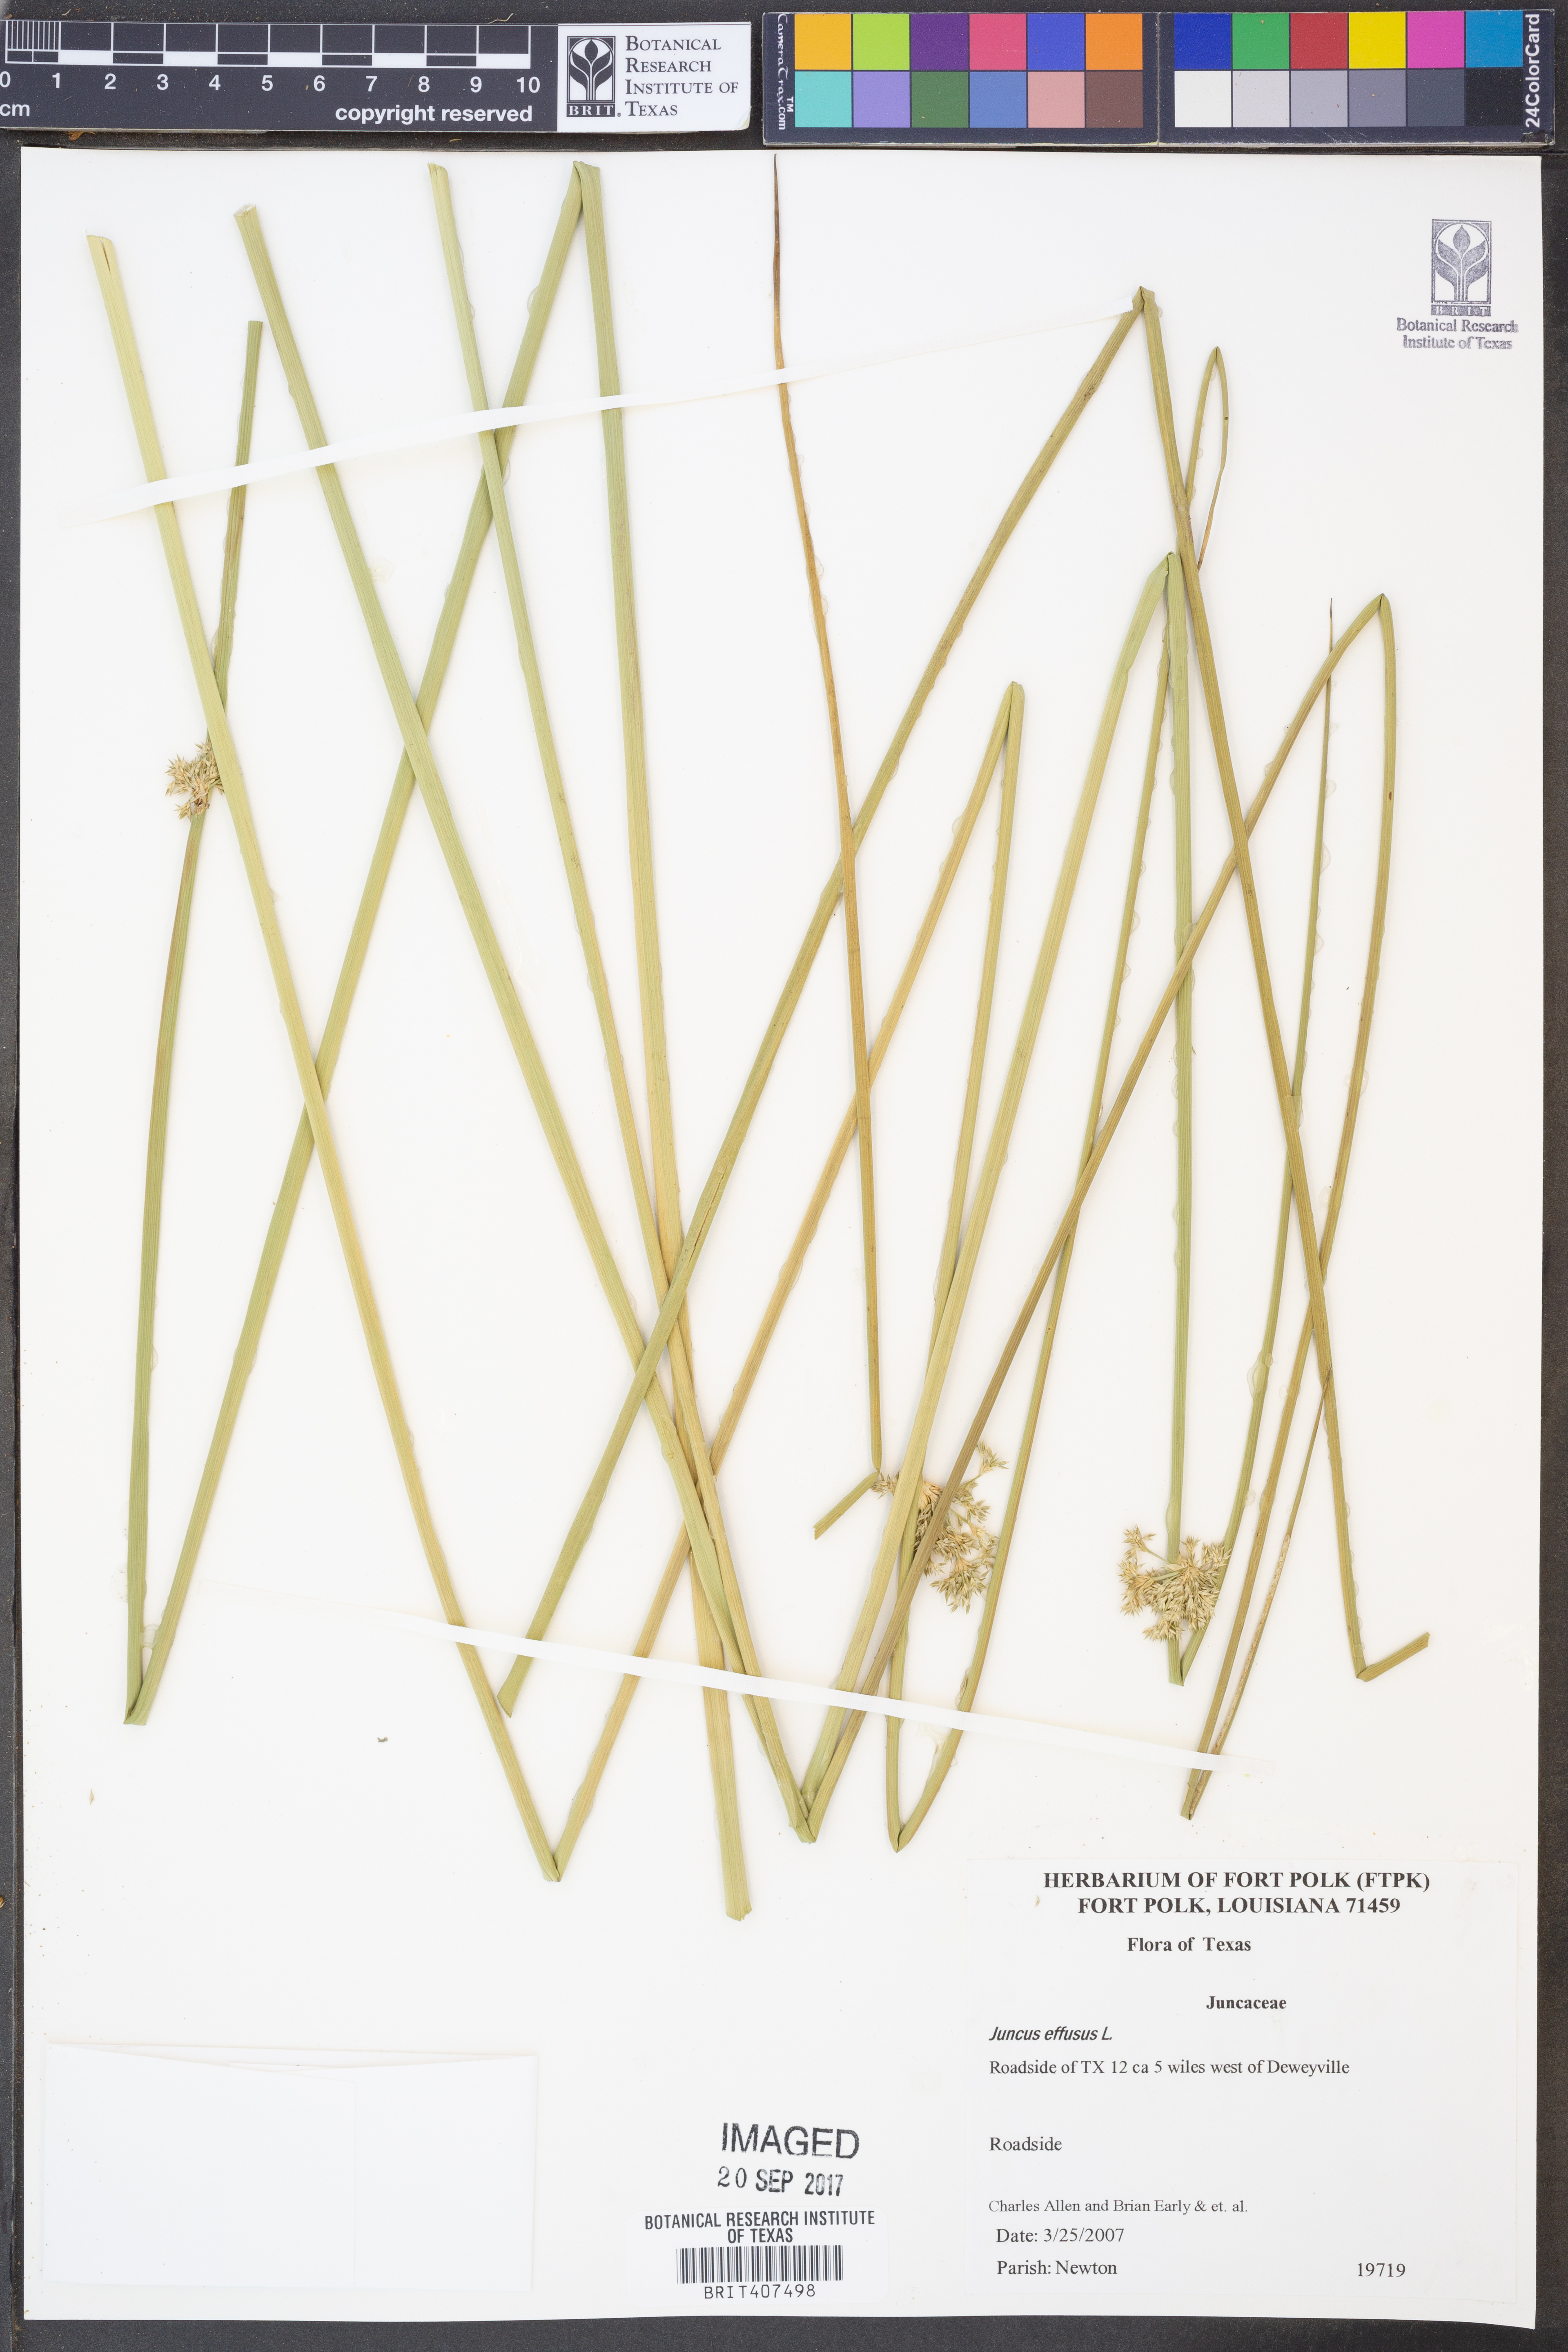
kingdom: Plantae
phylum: Tracheophyta
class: Liliopsida
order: Poales
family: Juncaceae
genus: Juncus
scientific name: Juncus effusus
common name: Soft rush
